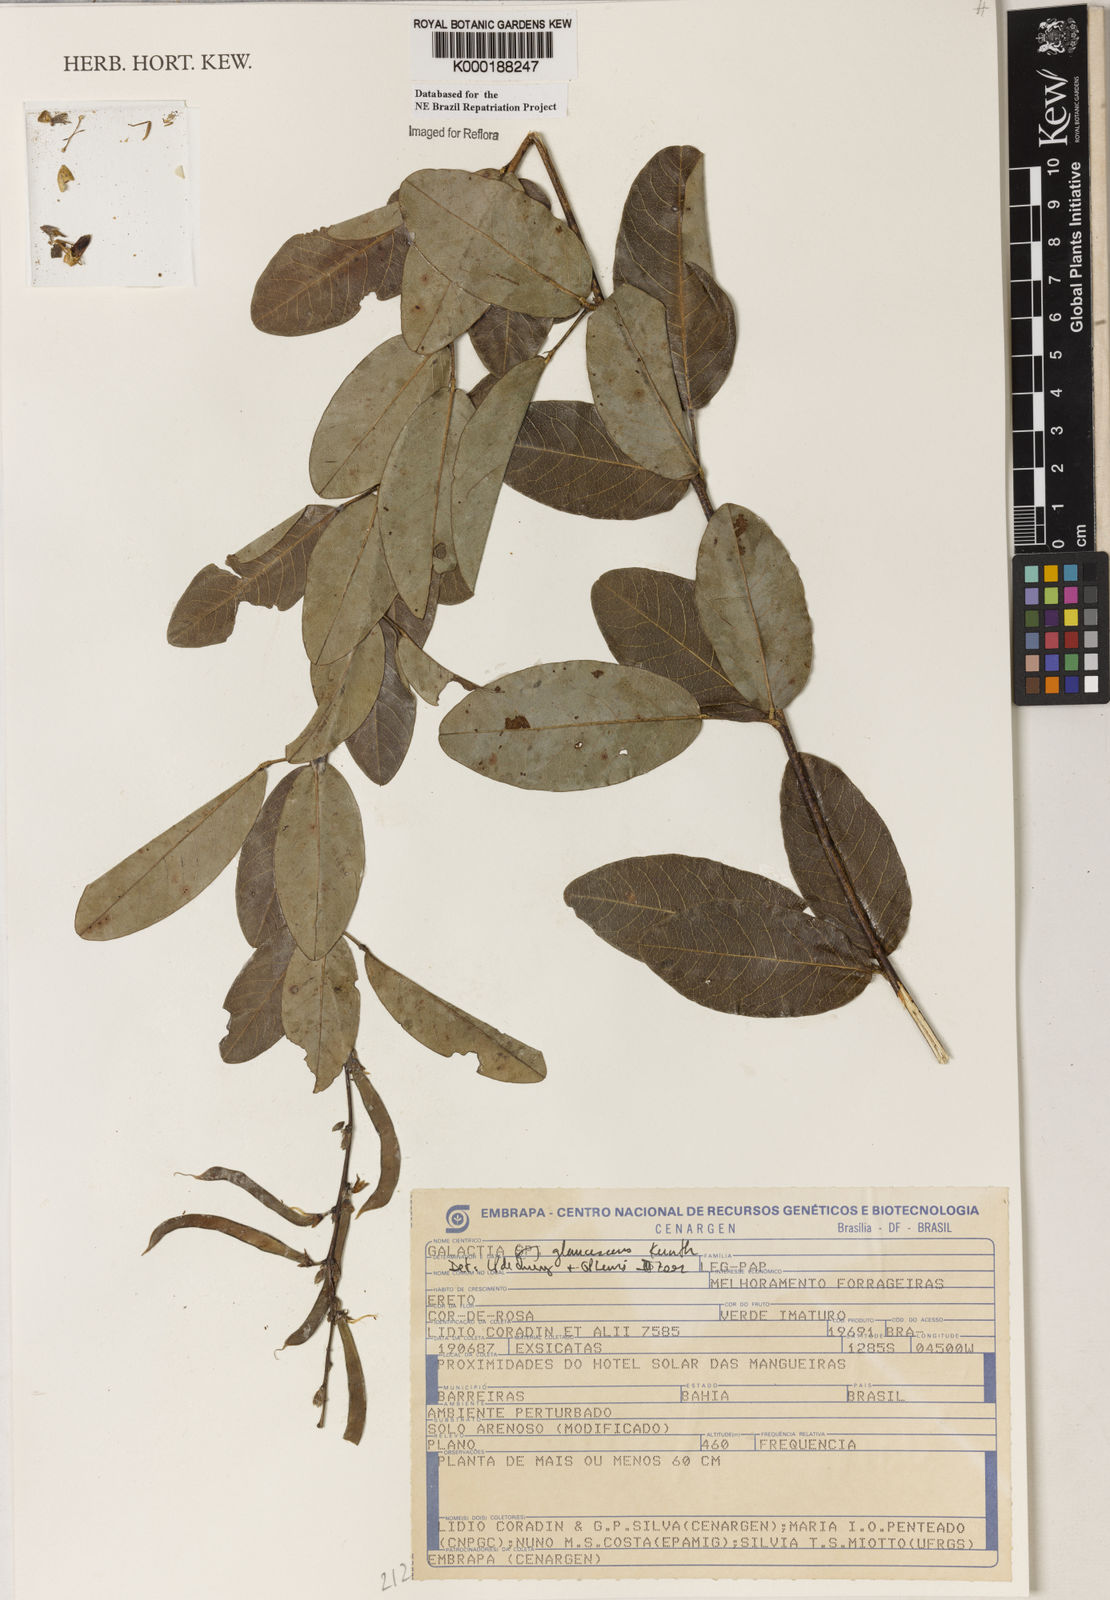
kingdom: Plantae
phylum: Tracheophyta
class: Magnoliopsida
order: Fabales
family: Fabaceae
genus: Galactia
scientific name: Galactia glaucescens
